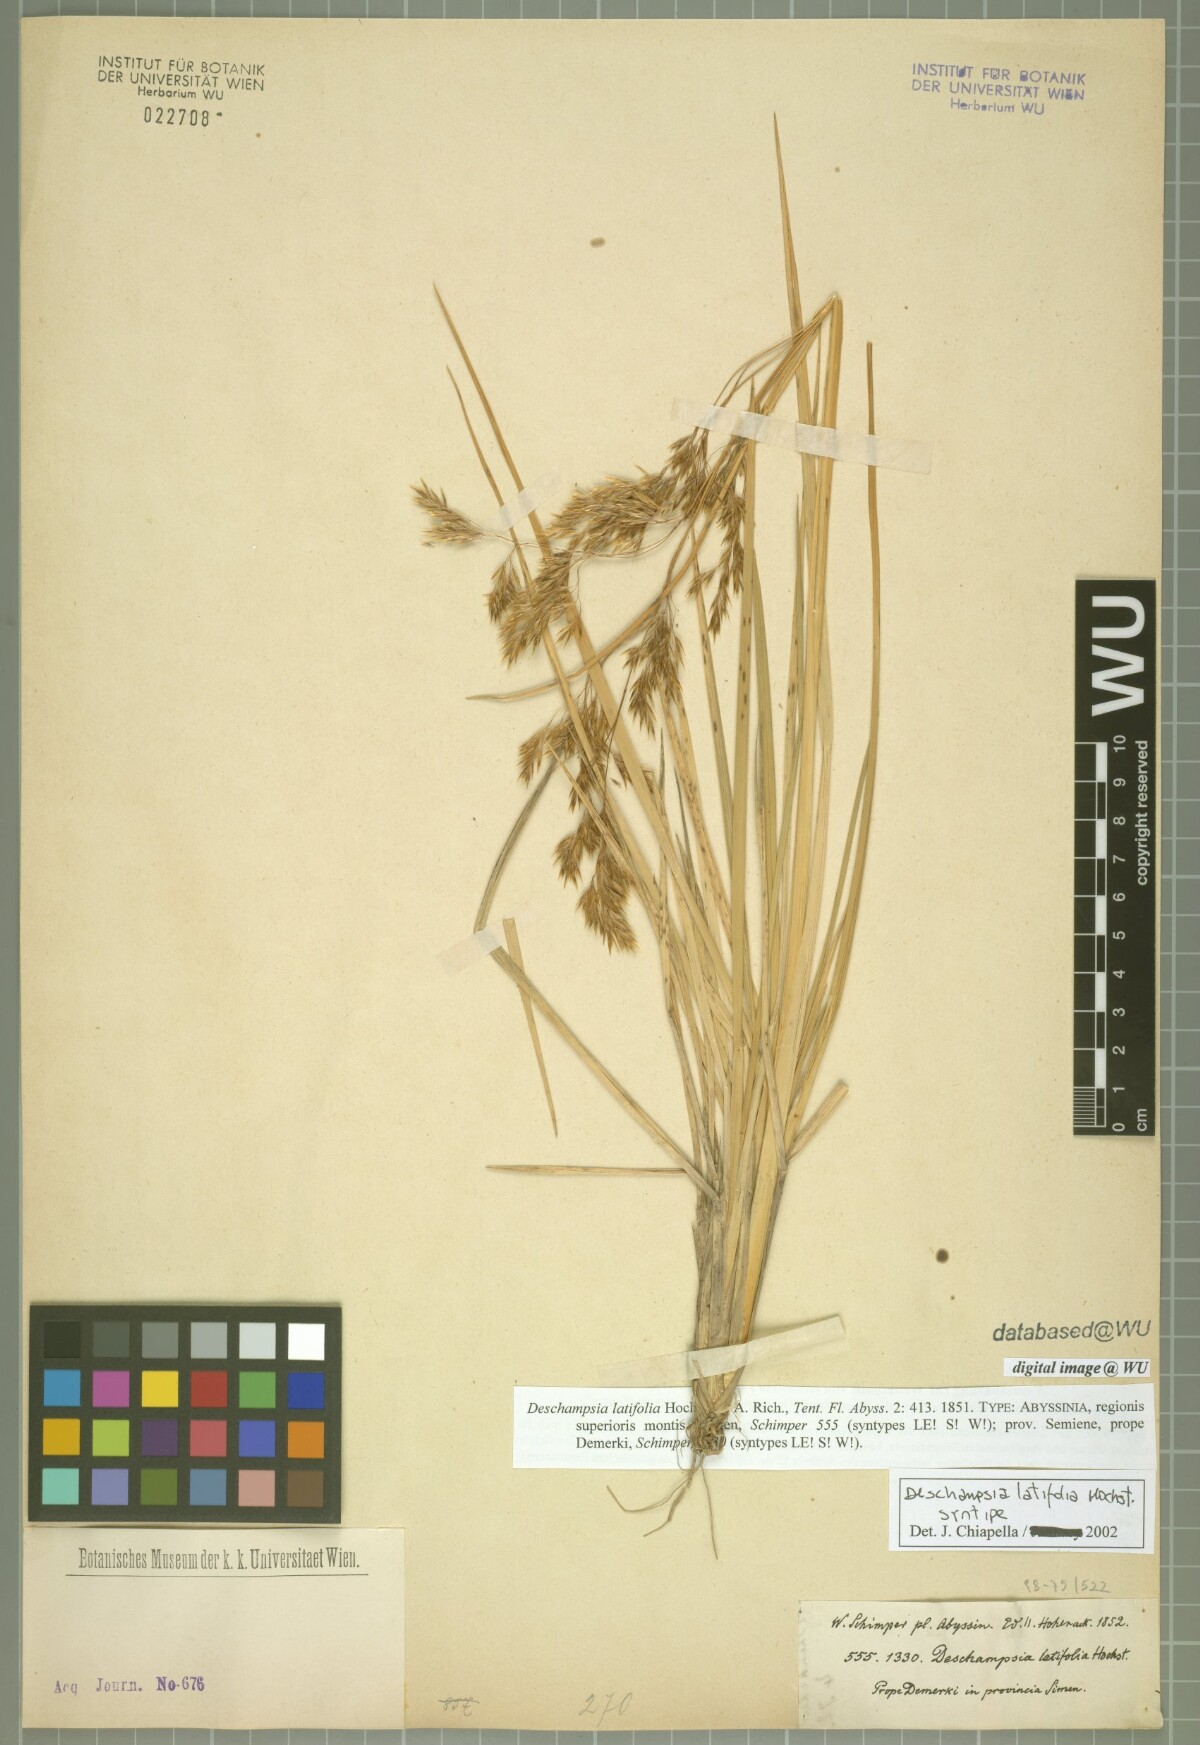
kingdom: Plantae
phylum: Tracheophyta
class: Liliopsida
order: Poales
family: Poaceae
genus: Deschampsia
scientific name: Deschampsia cespitosa
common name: Tufted hair-grass
